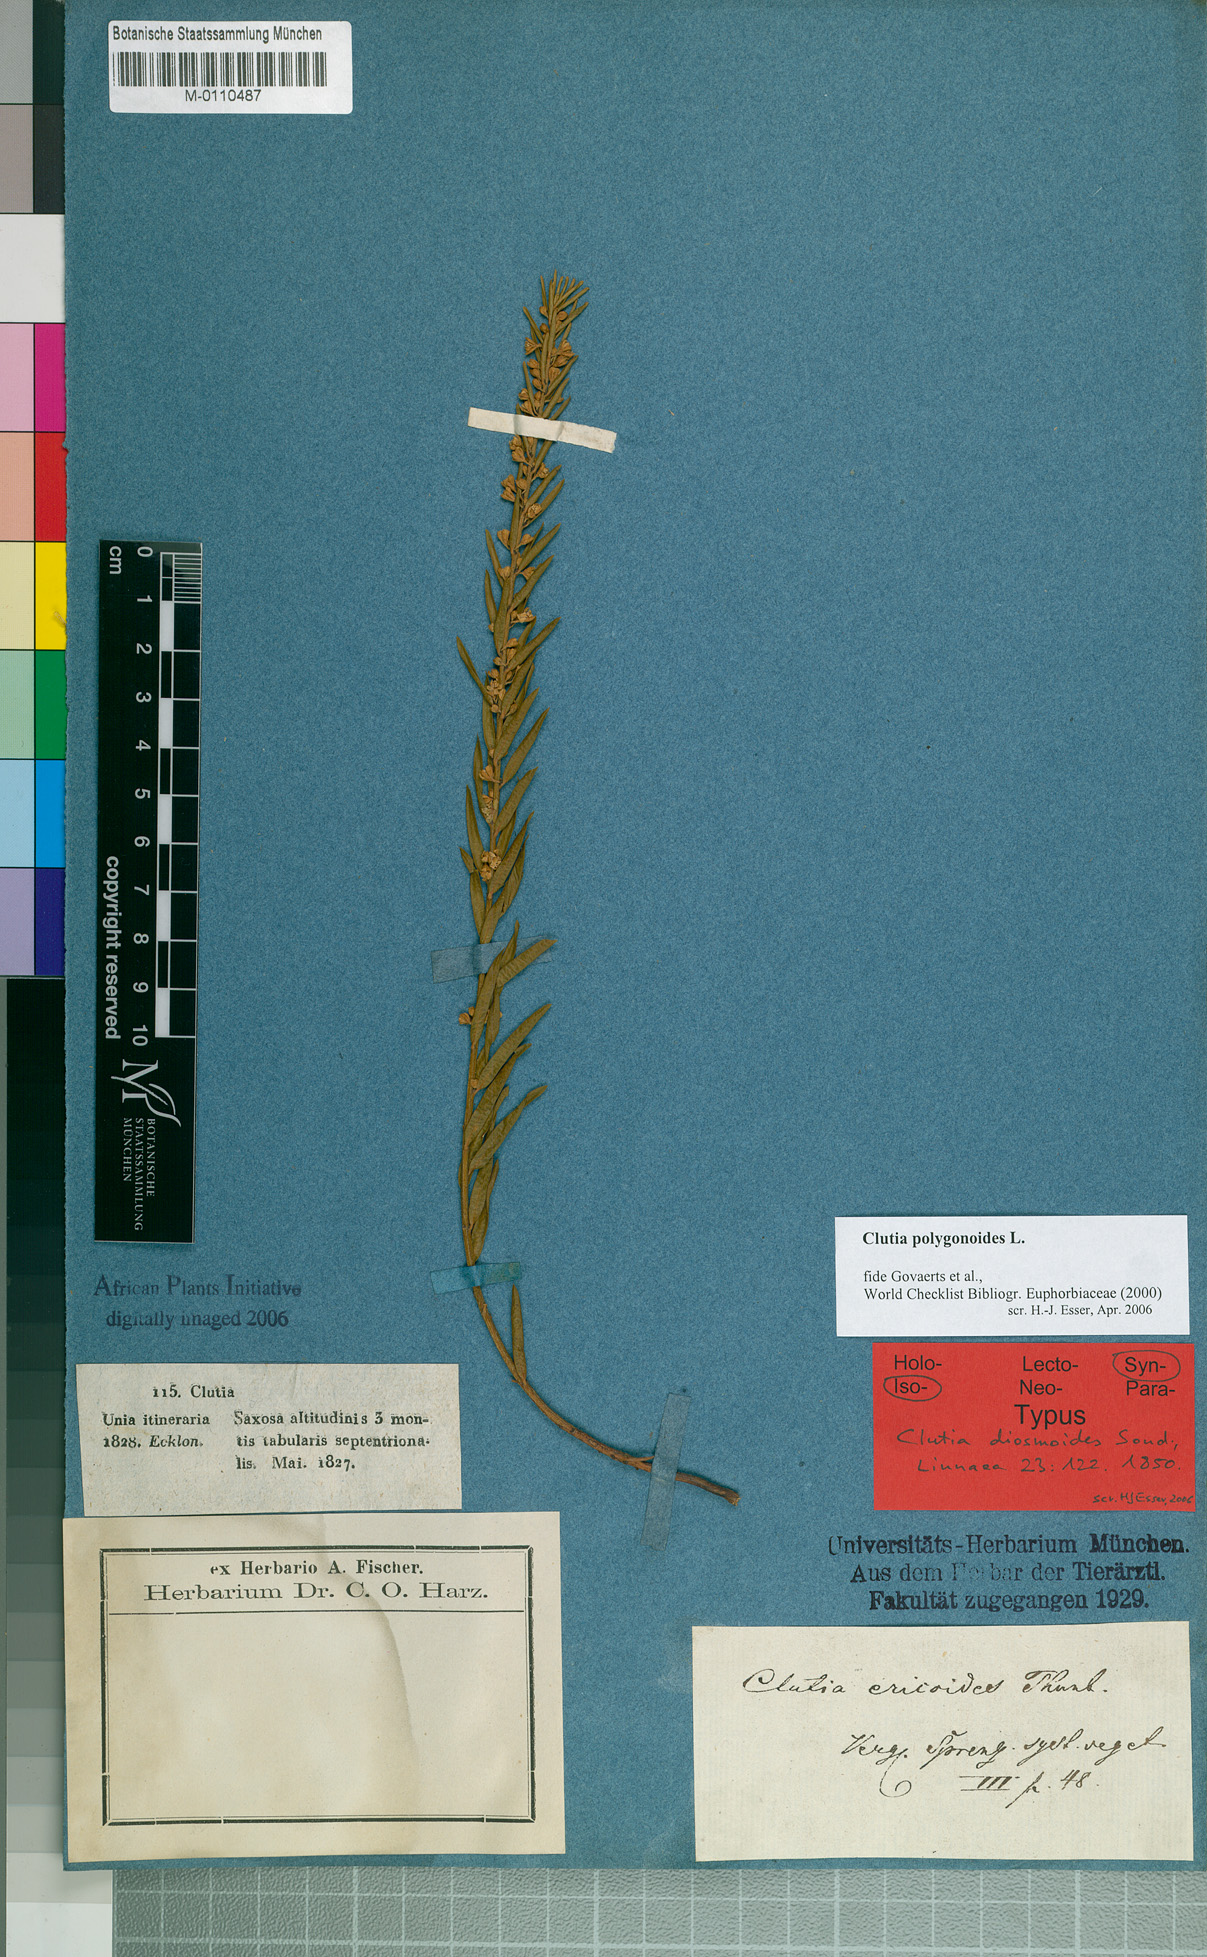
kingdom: Plantae
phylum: Tracheophyta
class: Magnoliopsida
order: Malpighiales
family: Peraceae
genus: Clutia
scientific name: Clutia polygonoides
